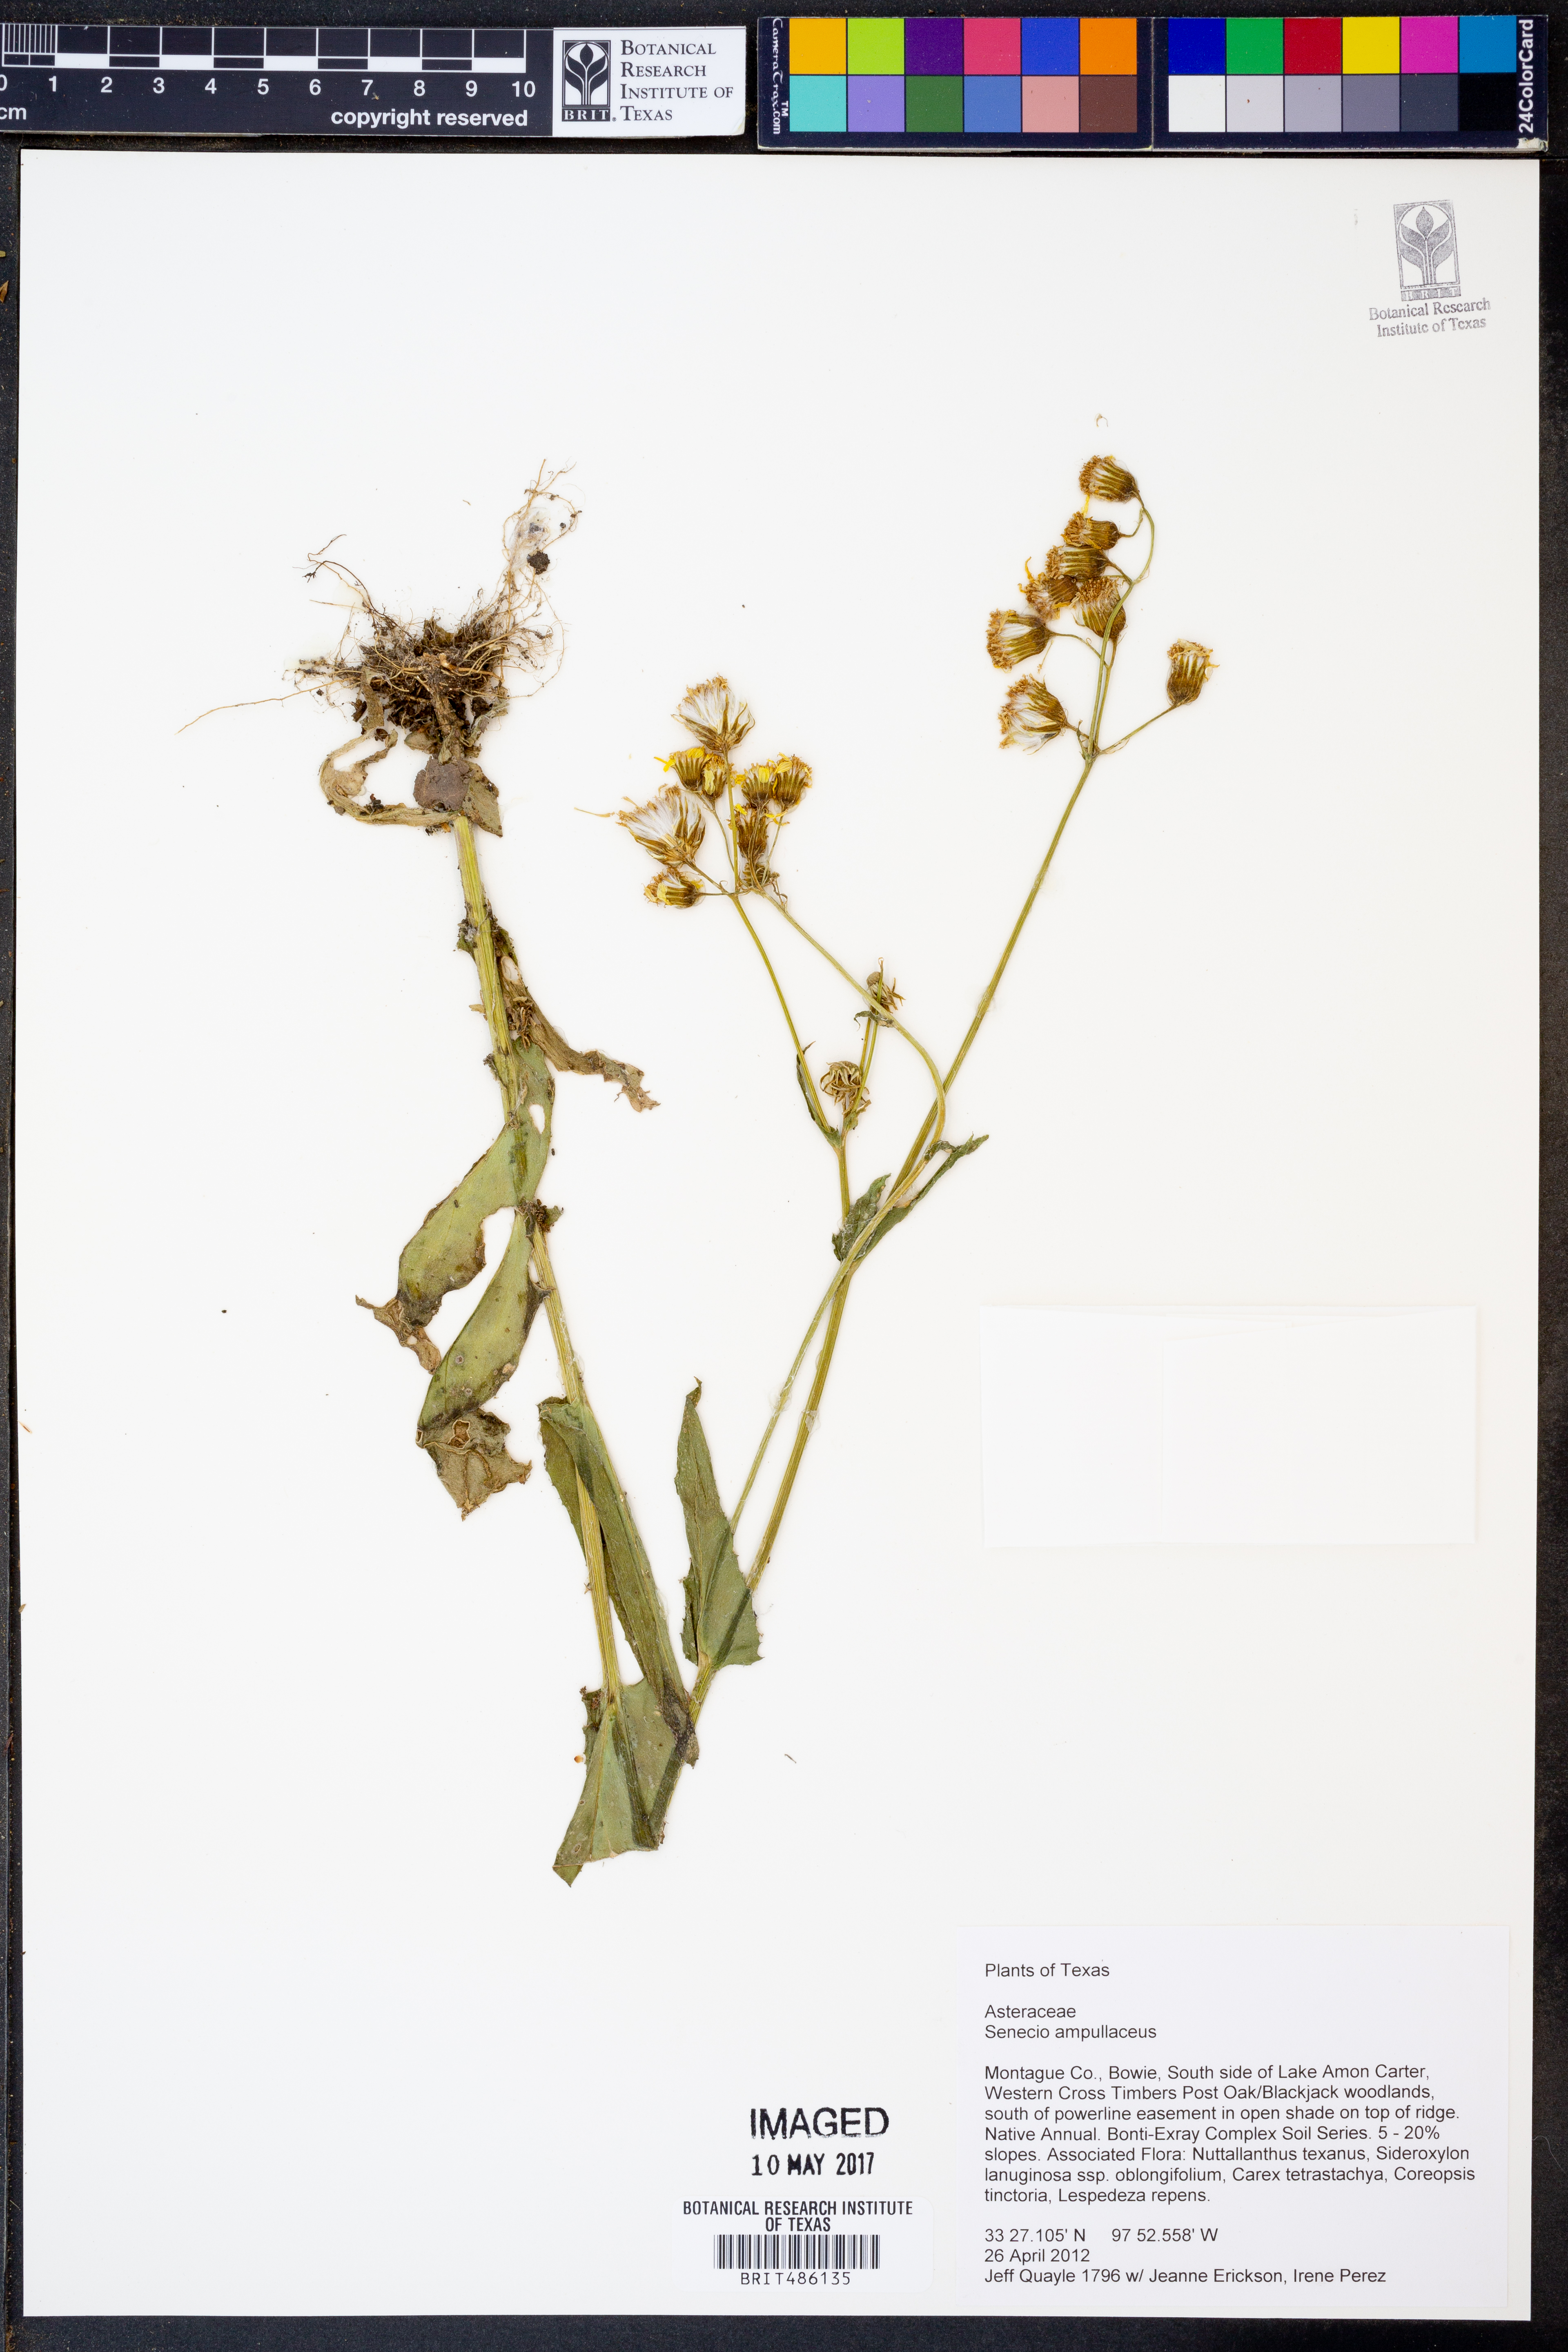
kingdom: Plantae
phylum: Tracheophyta
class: Magnoliopsida
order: Asterales
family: Asteraceae
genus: Senecio
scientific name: Senecio ampullaceus
